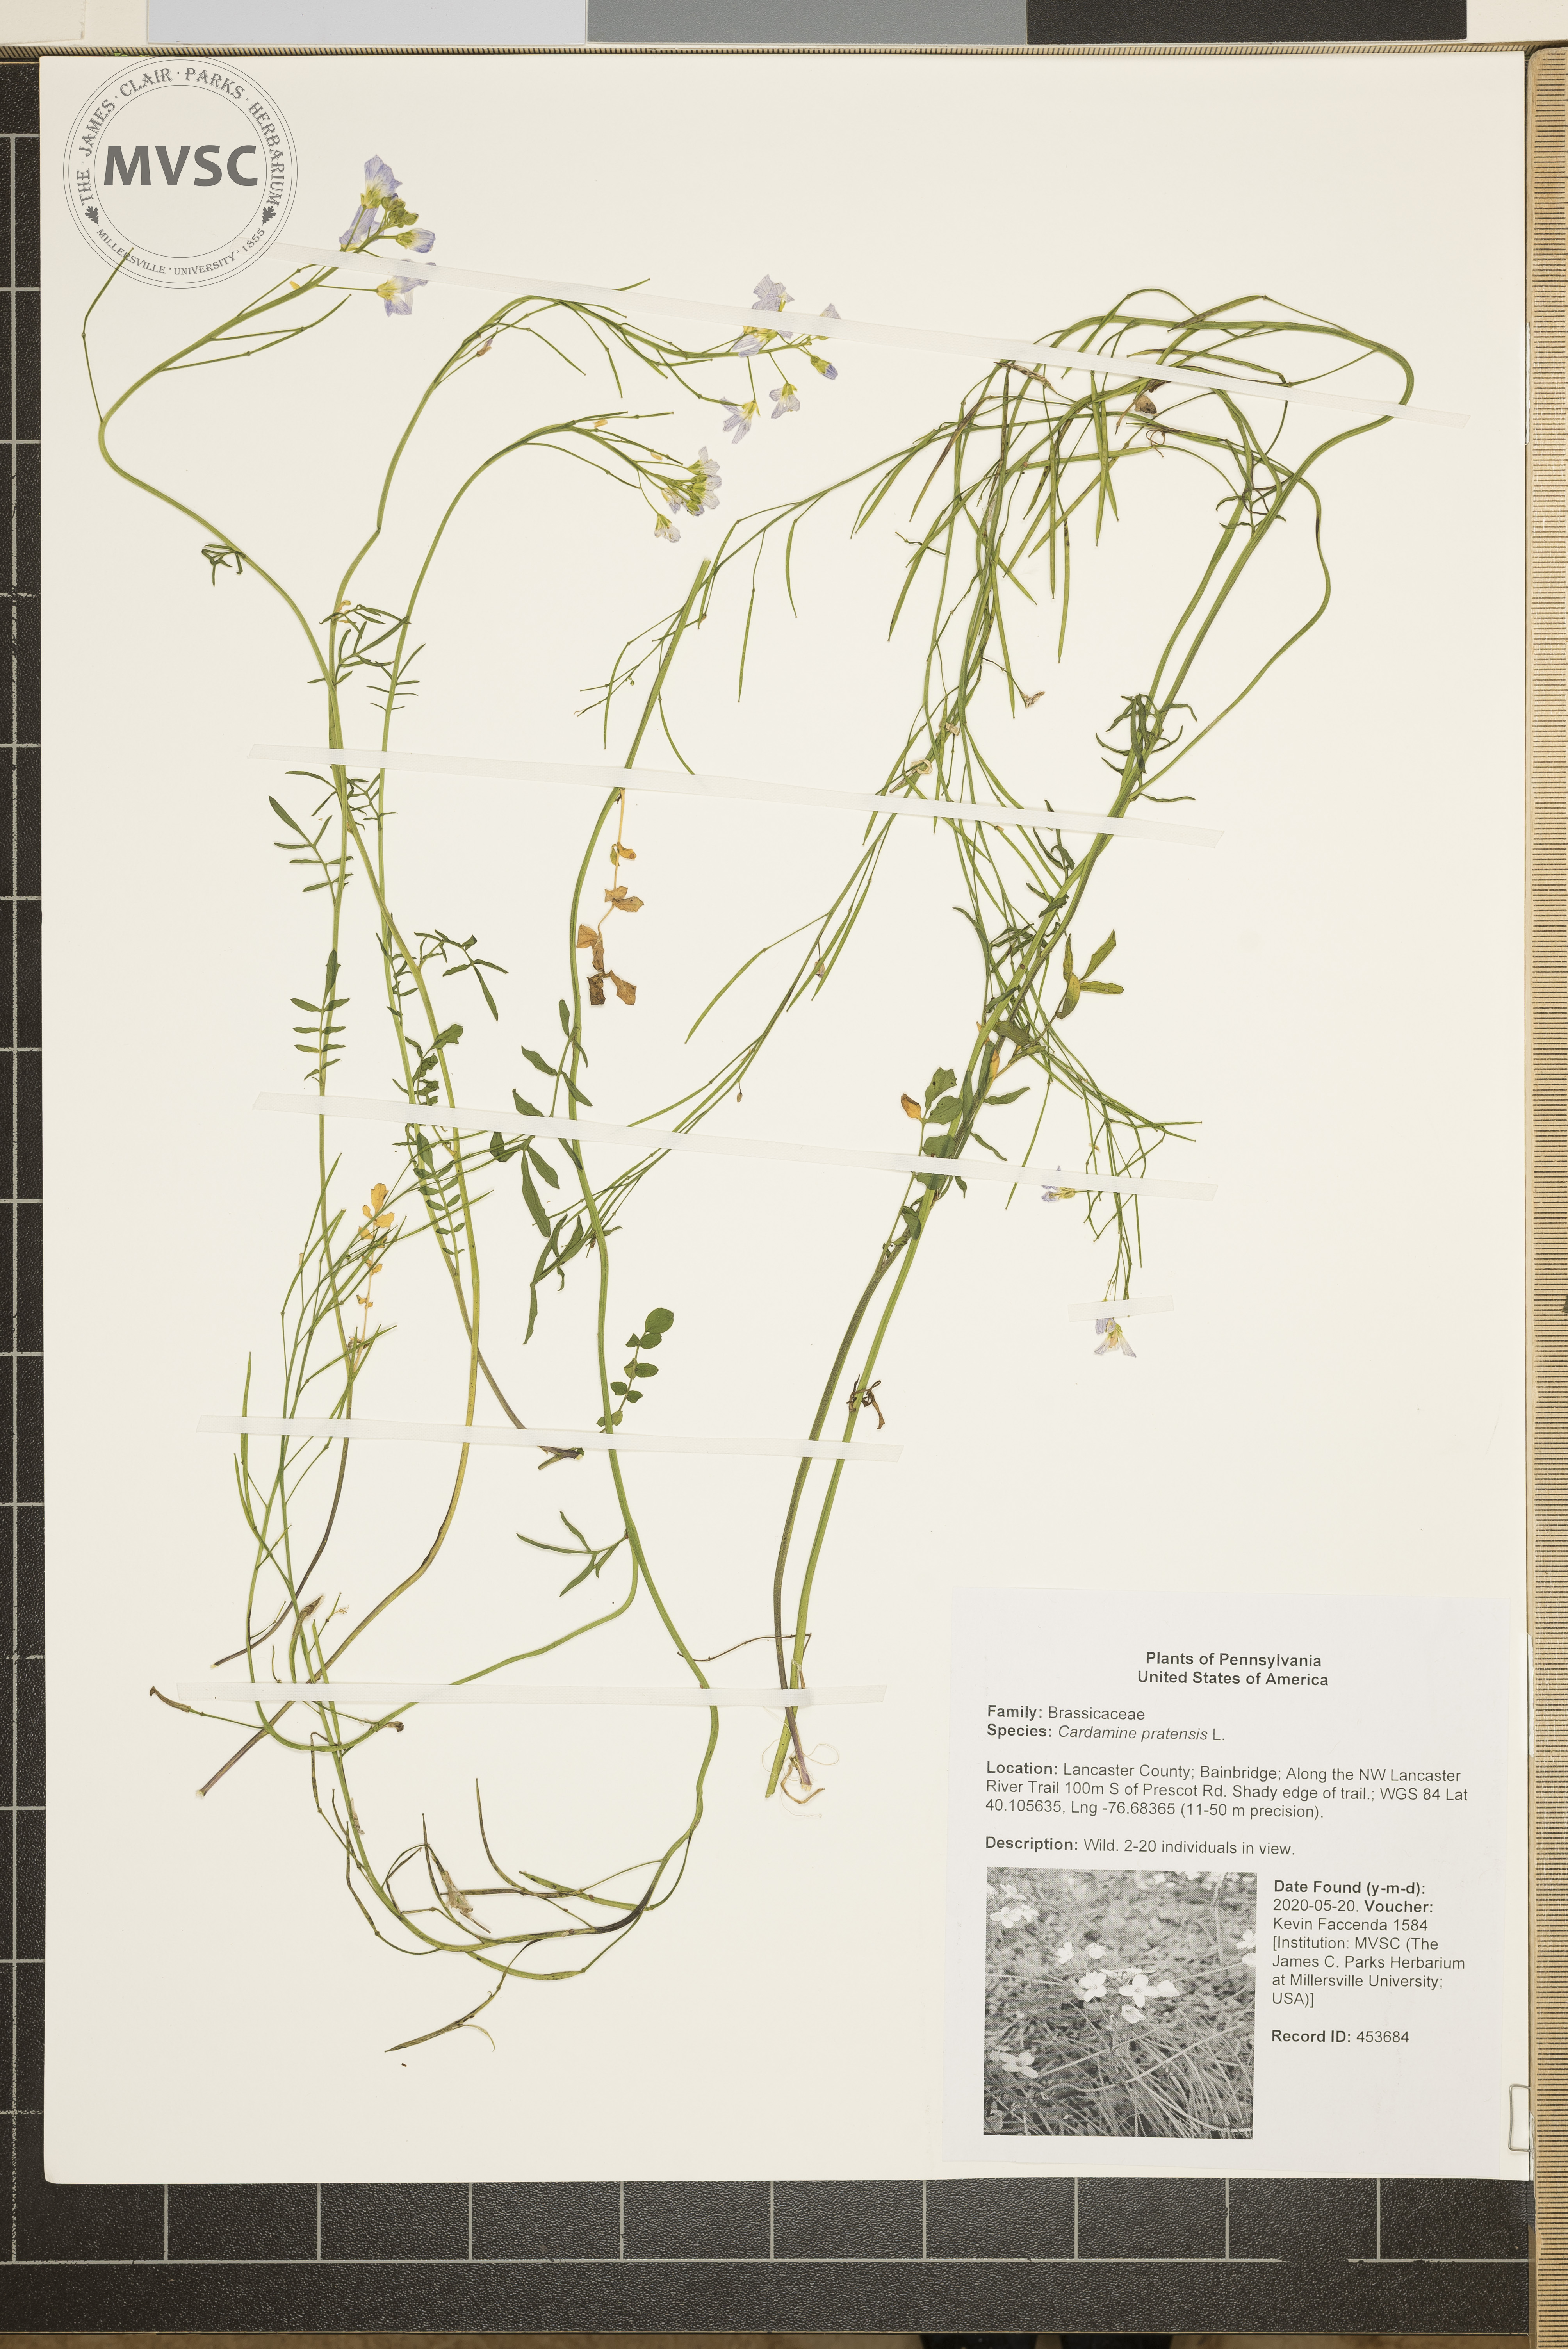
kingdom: Plantae
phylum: Tracheophyta
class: Magnoliopsida
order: Brassicales
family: Brassicaceae
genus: Cardamine
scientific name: Cardamine pratensis
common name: Cuckoo flower
